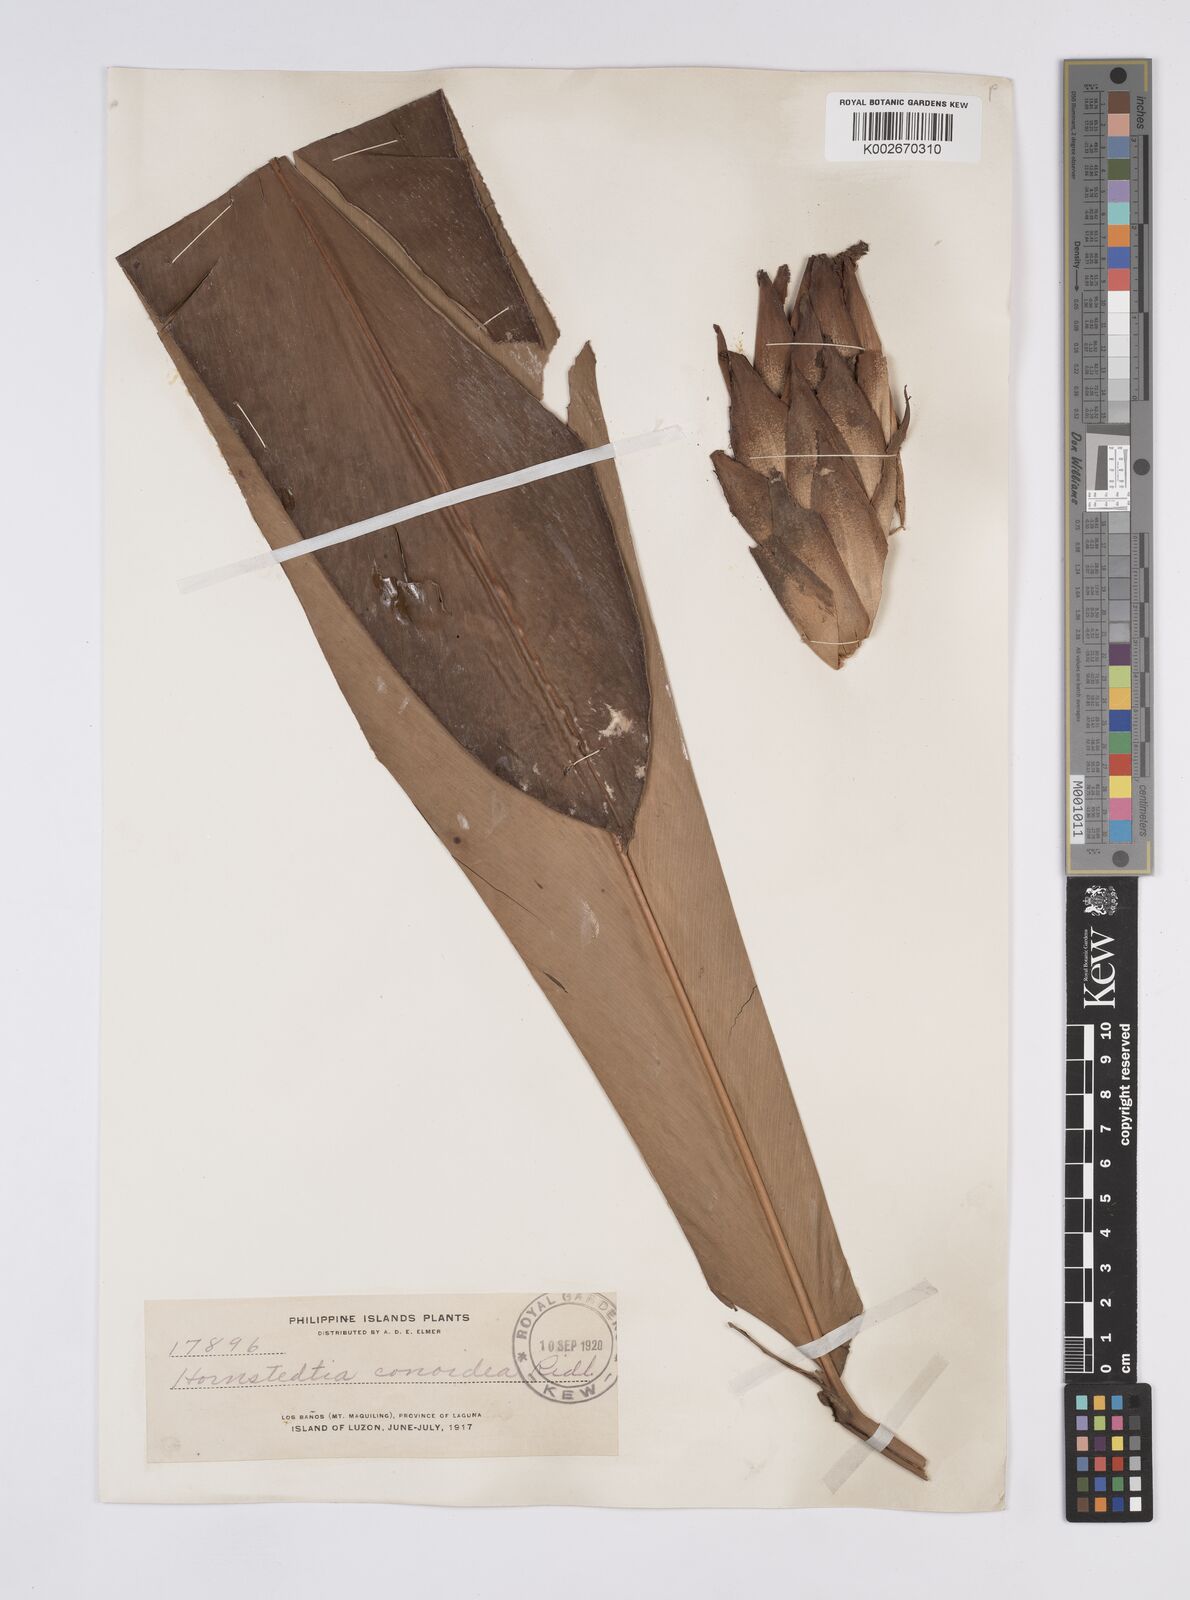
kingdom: Plantae
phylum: Tracheophyta
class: Liliopsida
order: Zingiberales
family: Zingiberaceae
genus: Hornstedtia
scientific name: Hornstedtia conoidea
